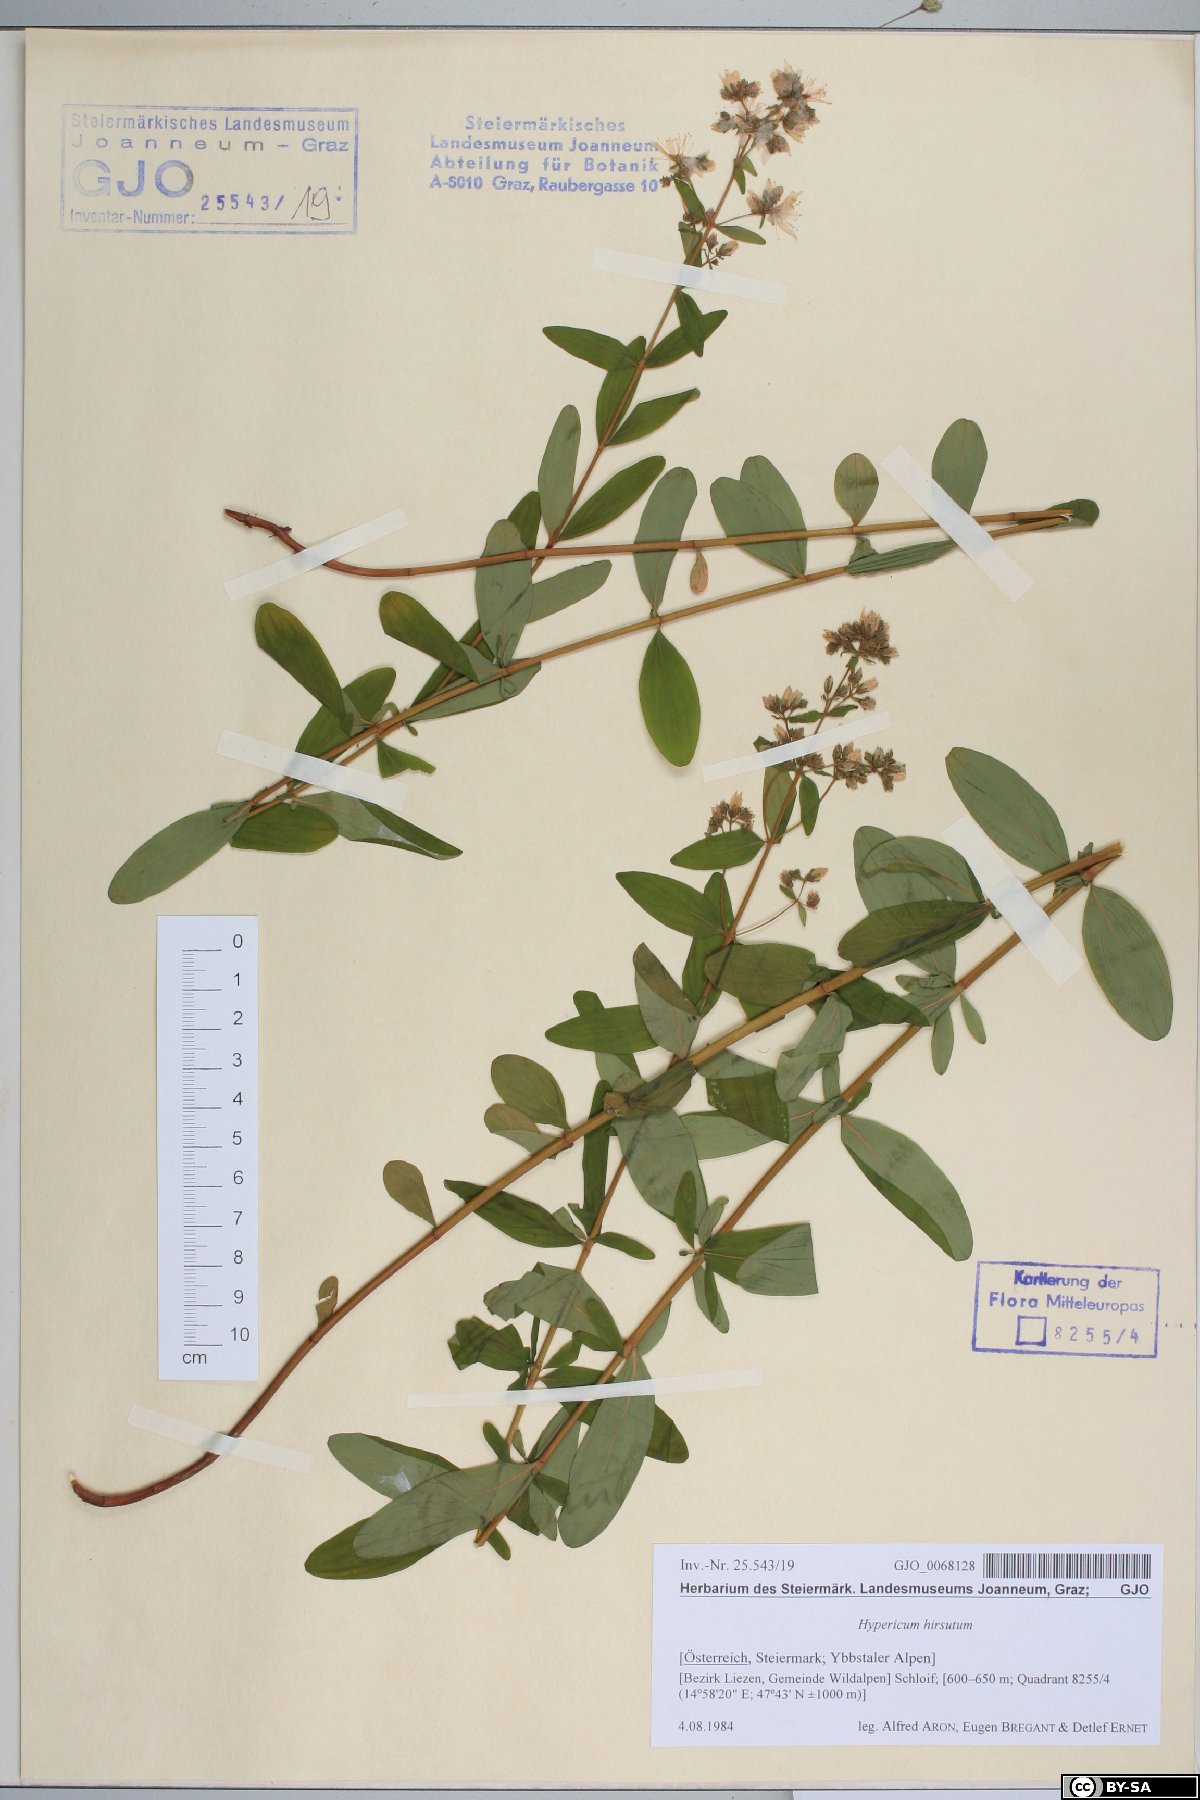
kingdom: Plantae
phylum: Tracheophyta
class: Magnoliopsida
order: Malpighiales
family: Hypericaceae
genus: Hypericum
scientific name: Hypericum hirsutum
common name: Hairy st. john's-wort
